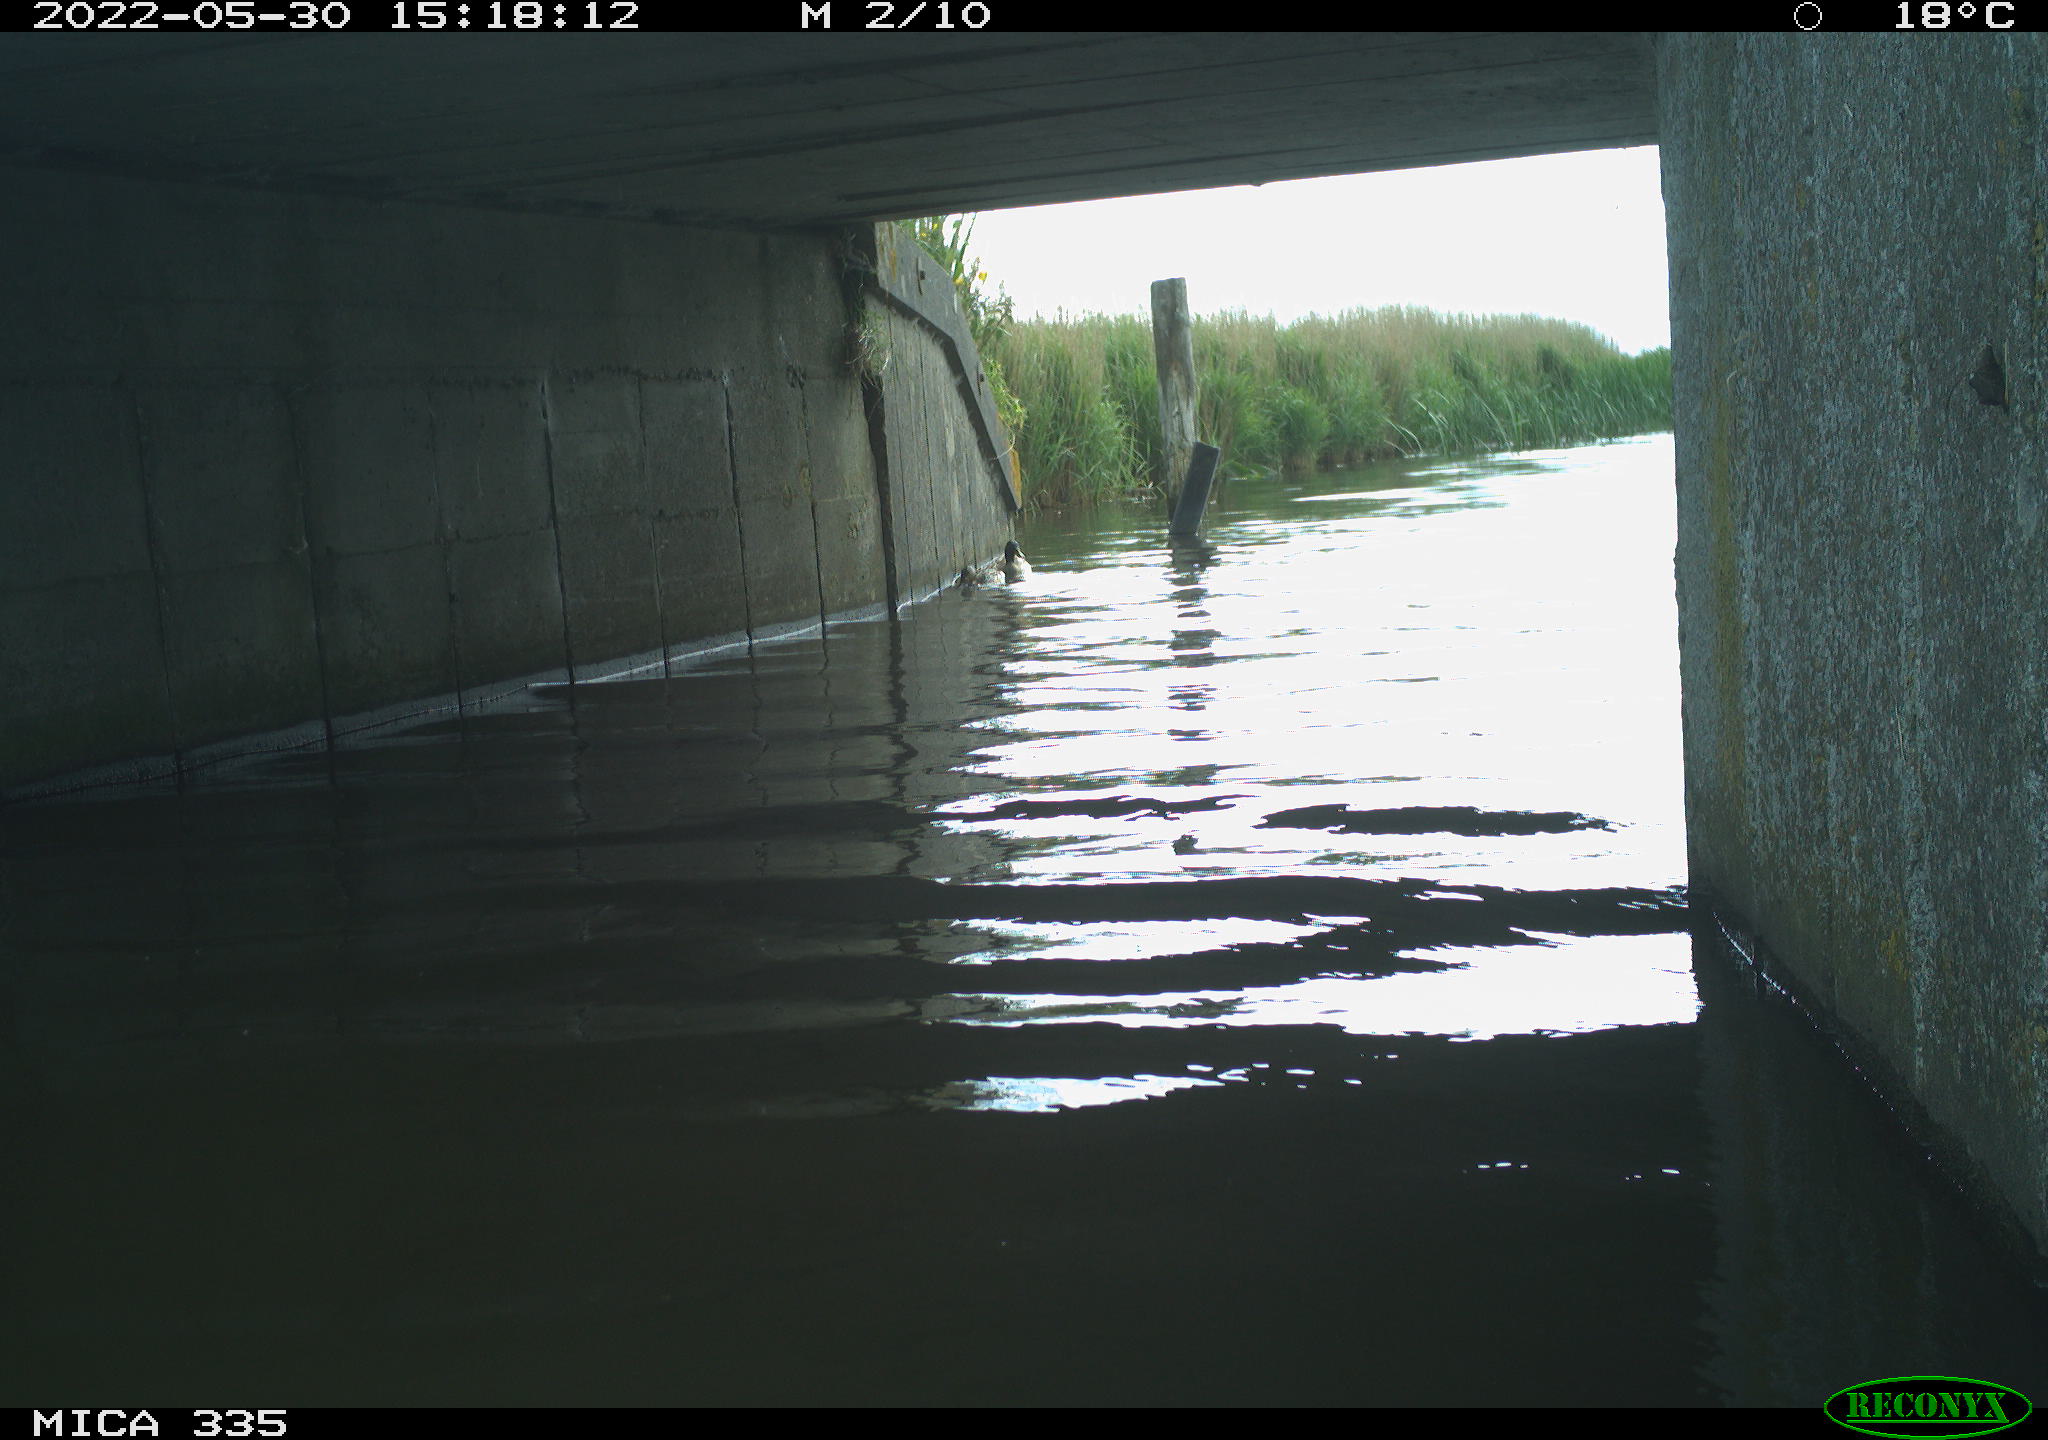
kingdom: Animalia
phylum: Chordata
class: Aves
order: Anseriformes
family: Anatidae
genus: Anas
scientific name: Anas platyrhynchos
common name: Mallard
